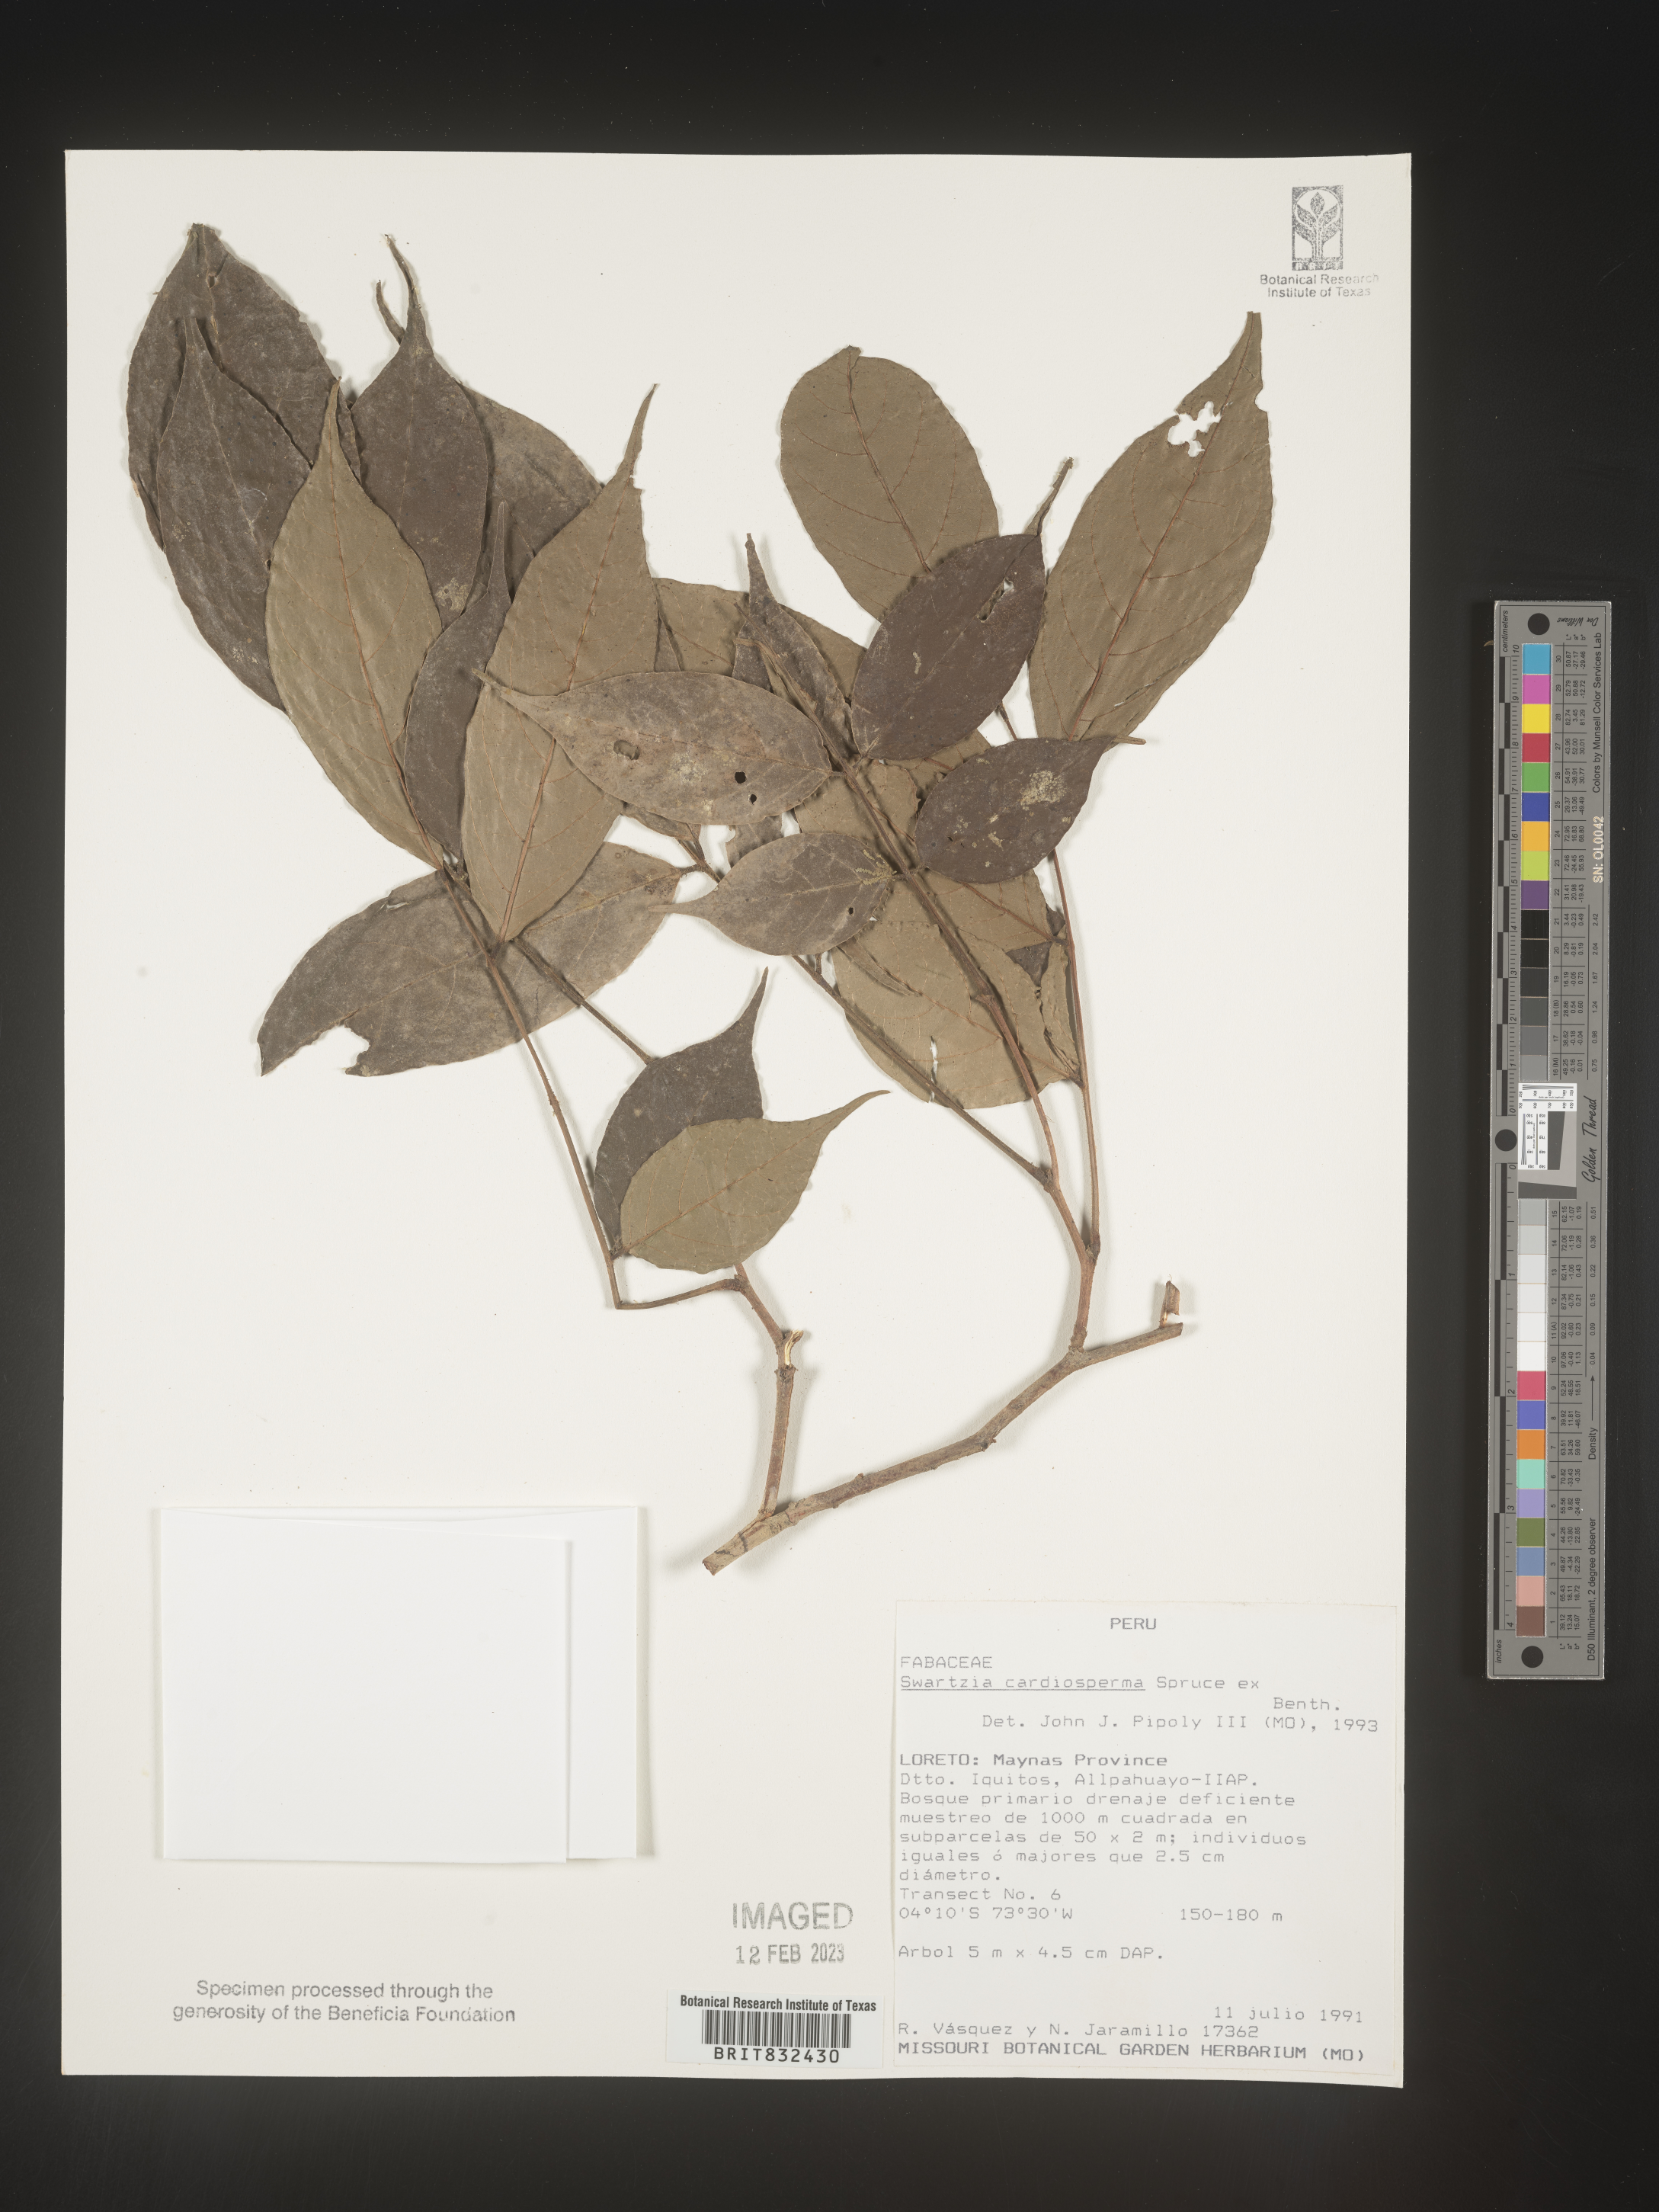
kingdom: Plantae
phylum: Tracheophyta
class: Magnoliopsida
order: Fabales
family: Fabaceae
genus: Swartzia
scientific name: Swartzia
